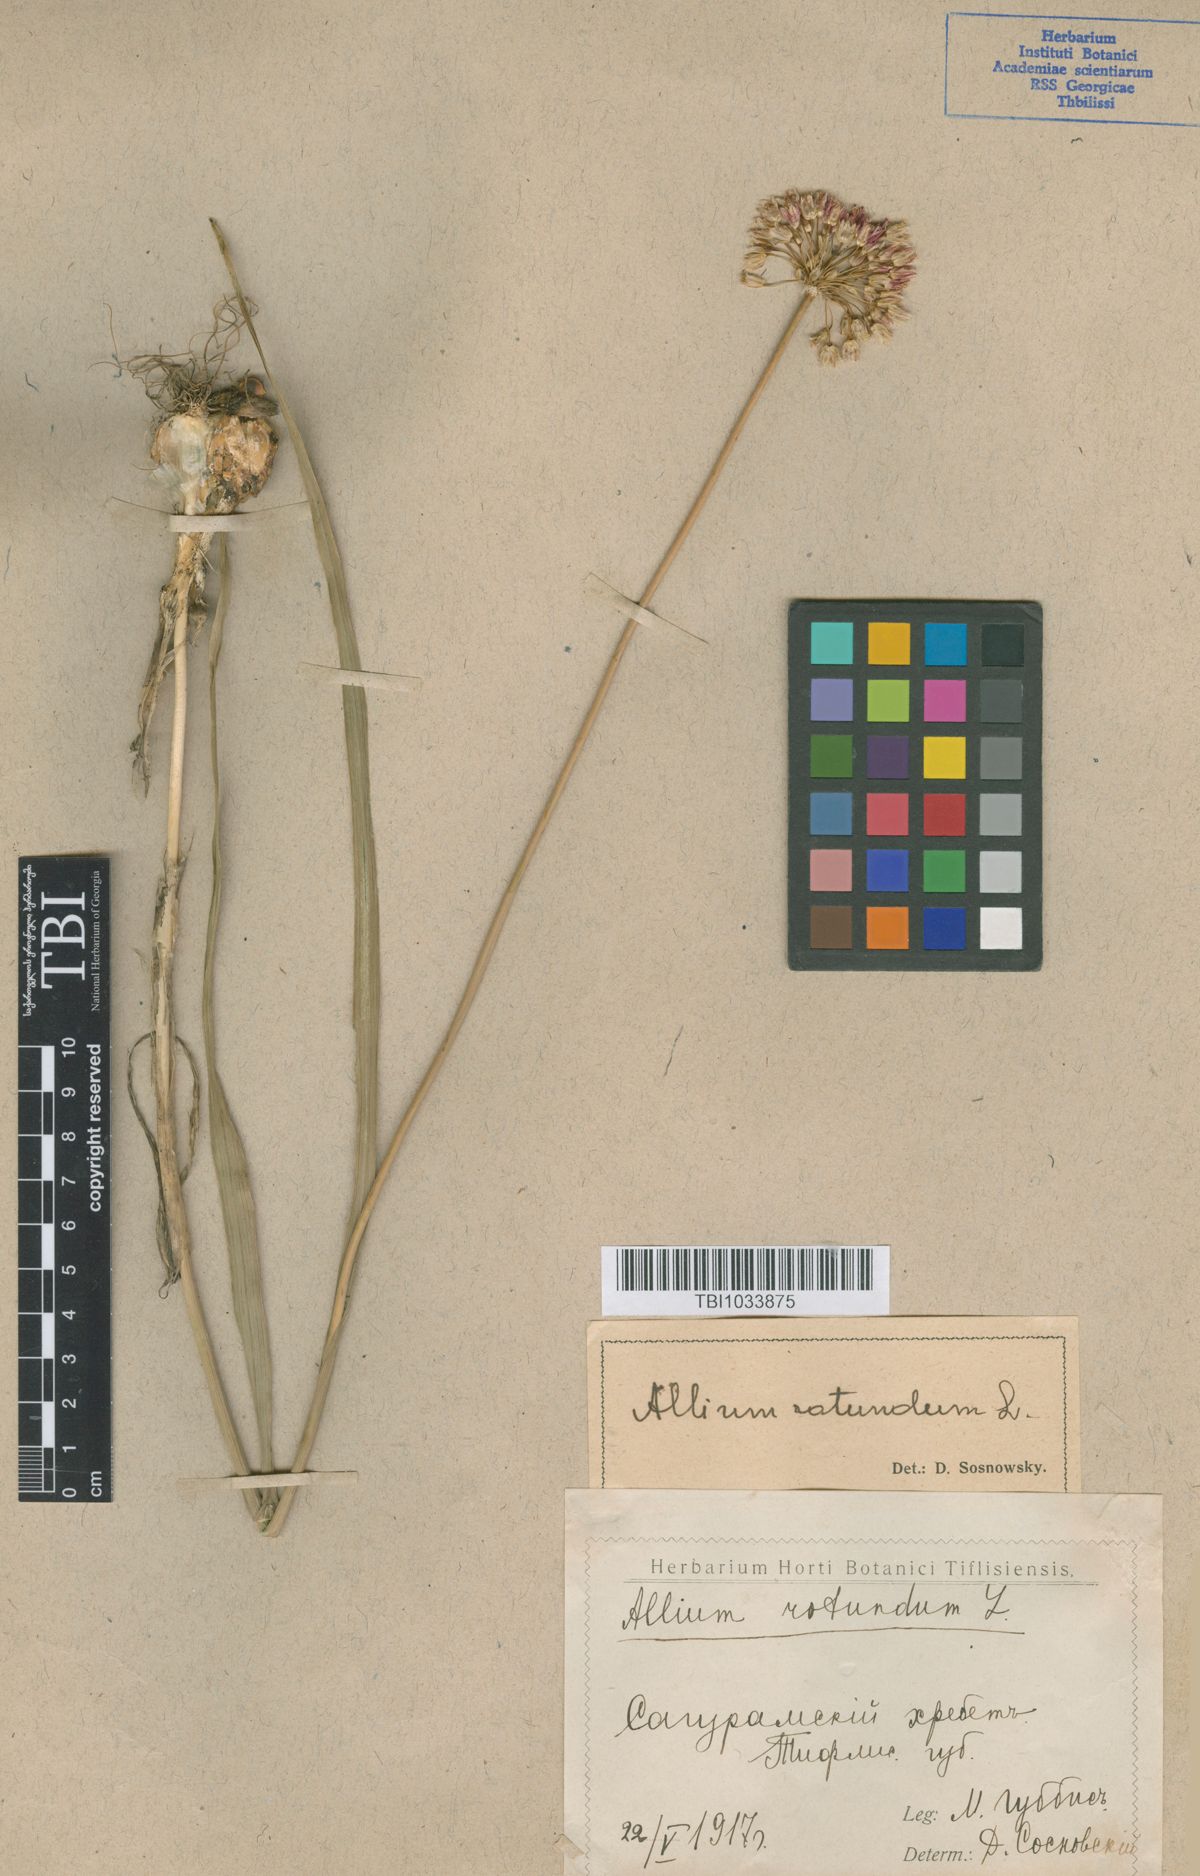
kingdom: Plantae
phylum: Tracheophyta
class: Liliopsida
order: Asparagales
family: Amaryllidaceae
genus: Allium
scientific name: Allium rotundum
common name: Sand leek
